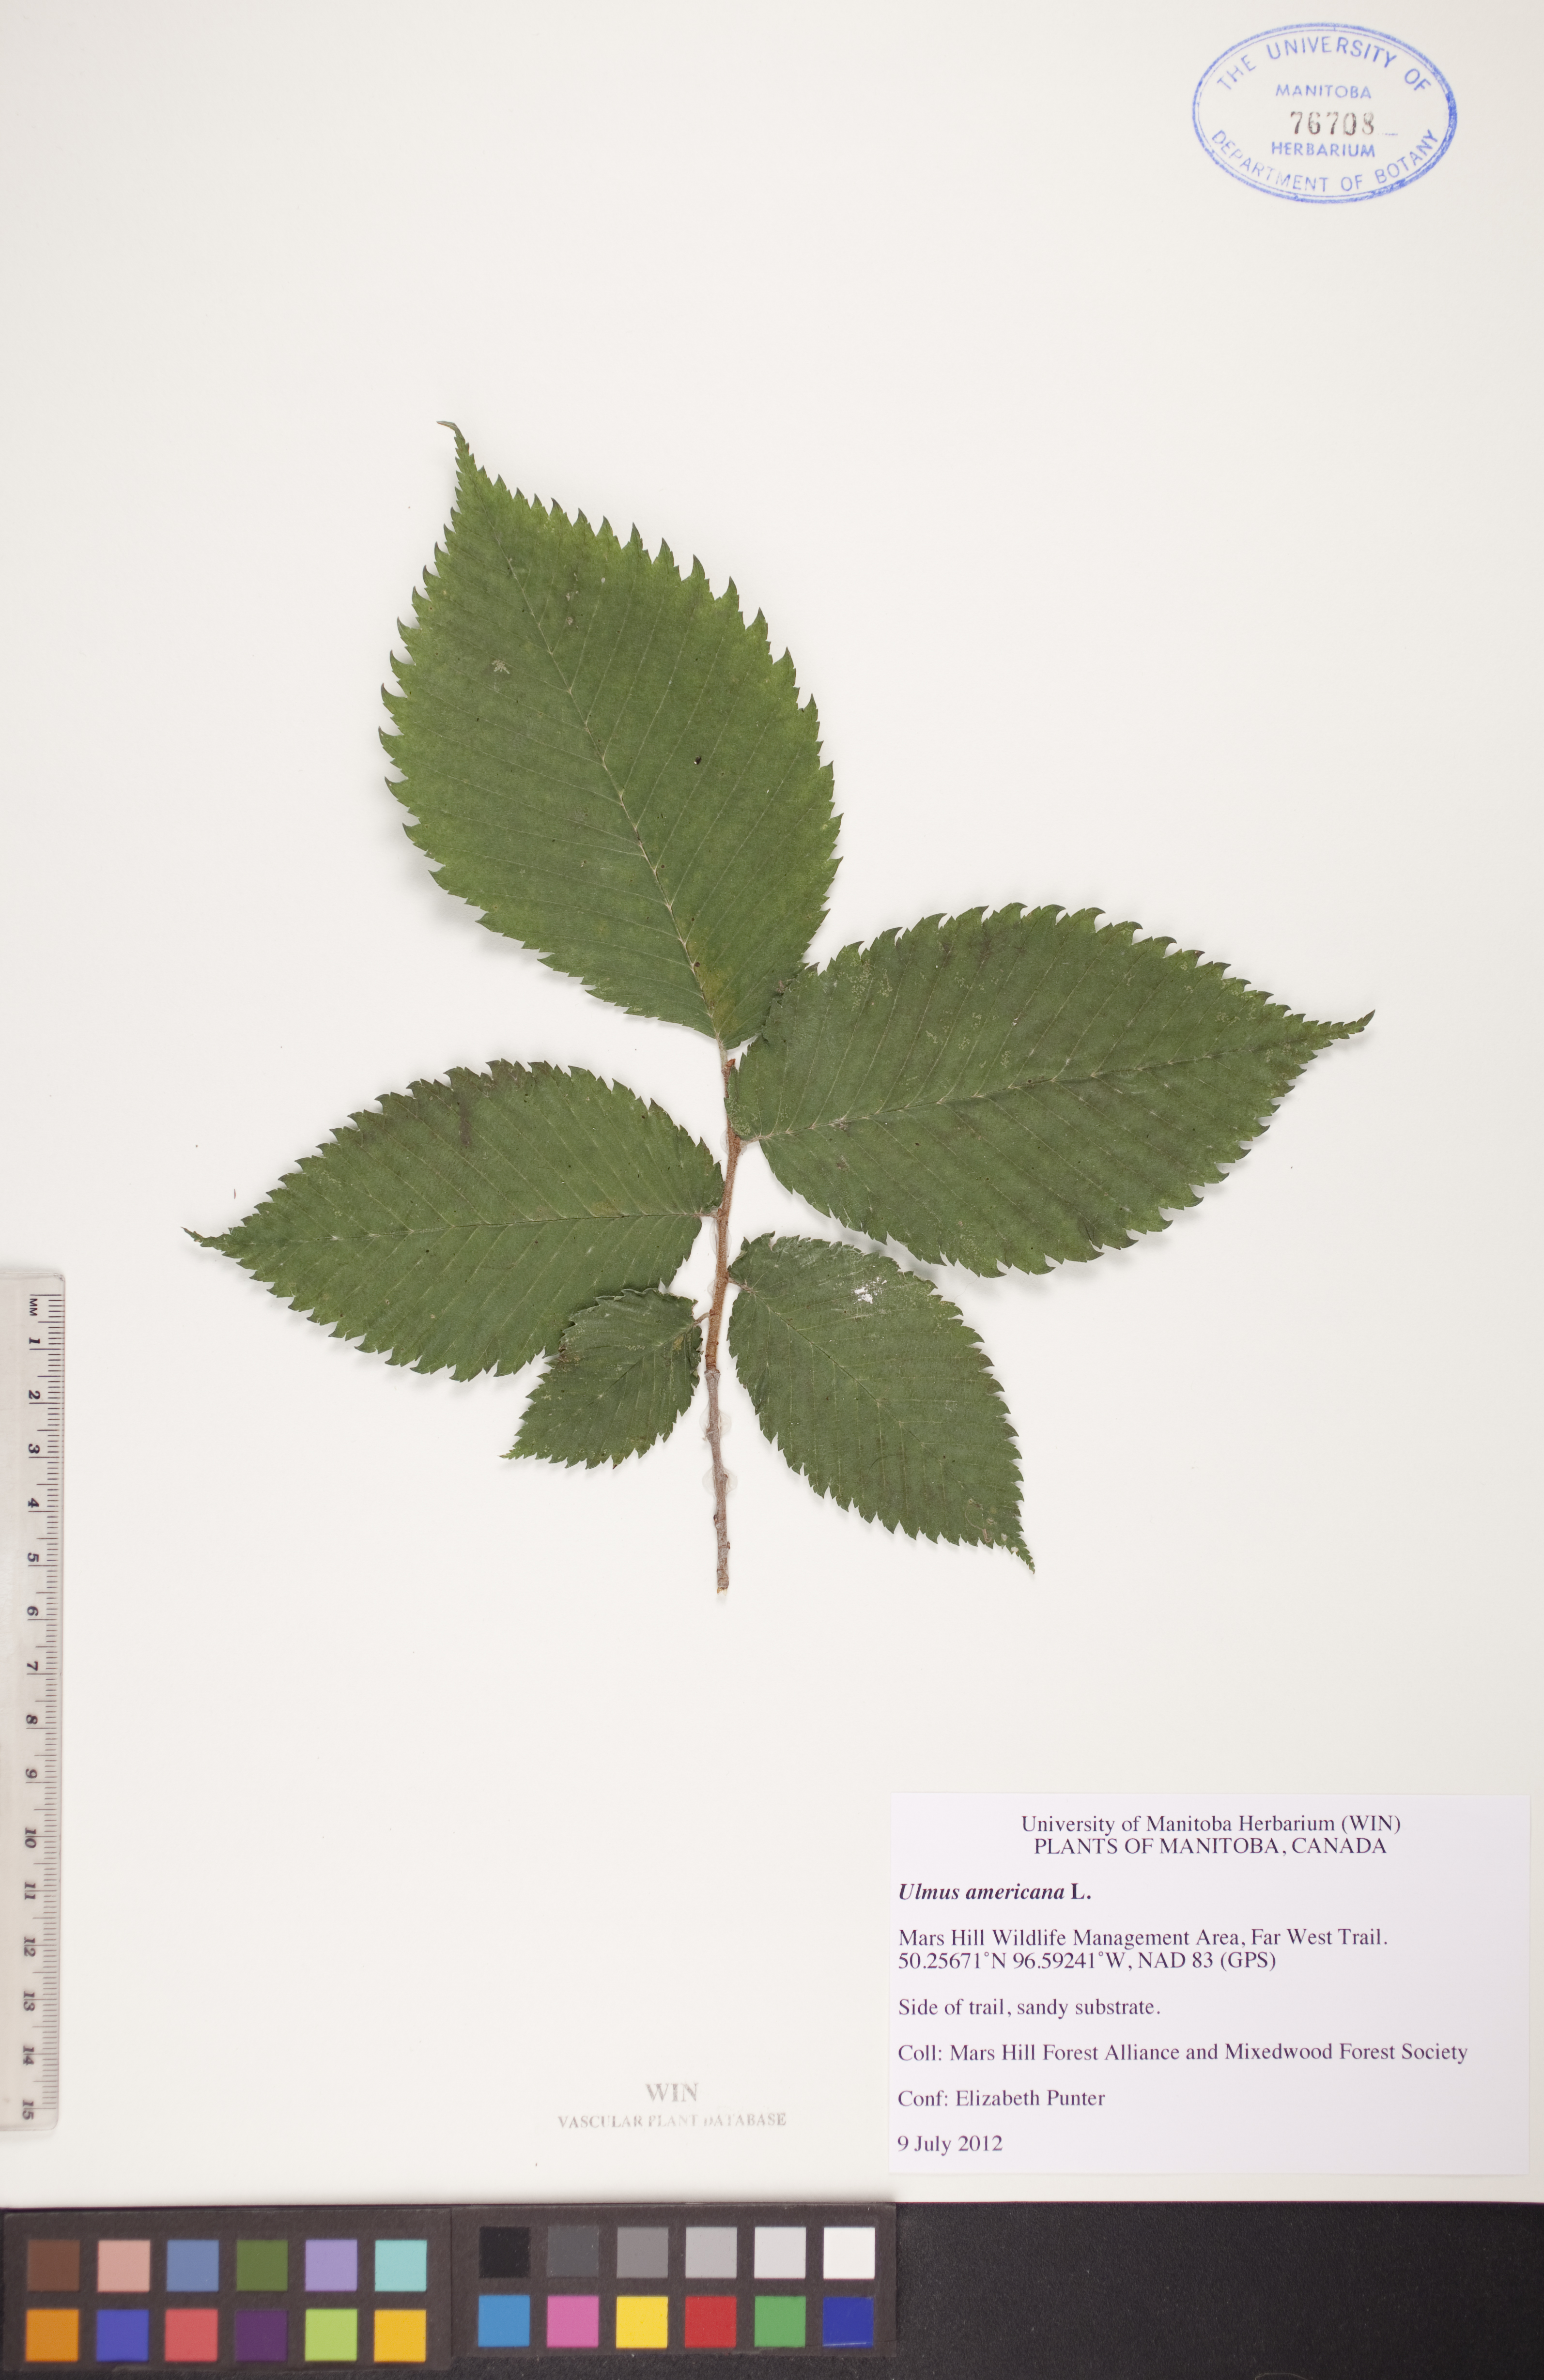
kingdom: Plantae
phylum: Tracheophyta
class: Magnoliopsida
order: Rosales
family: Ulmaceae
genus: Ulmus
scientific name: Ulmus americana
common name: American elm
